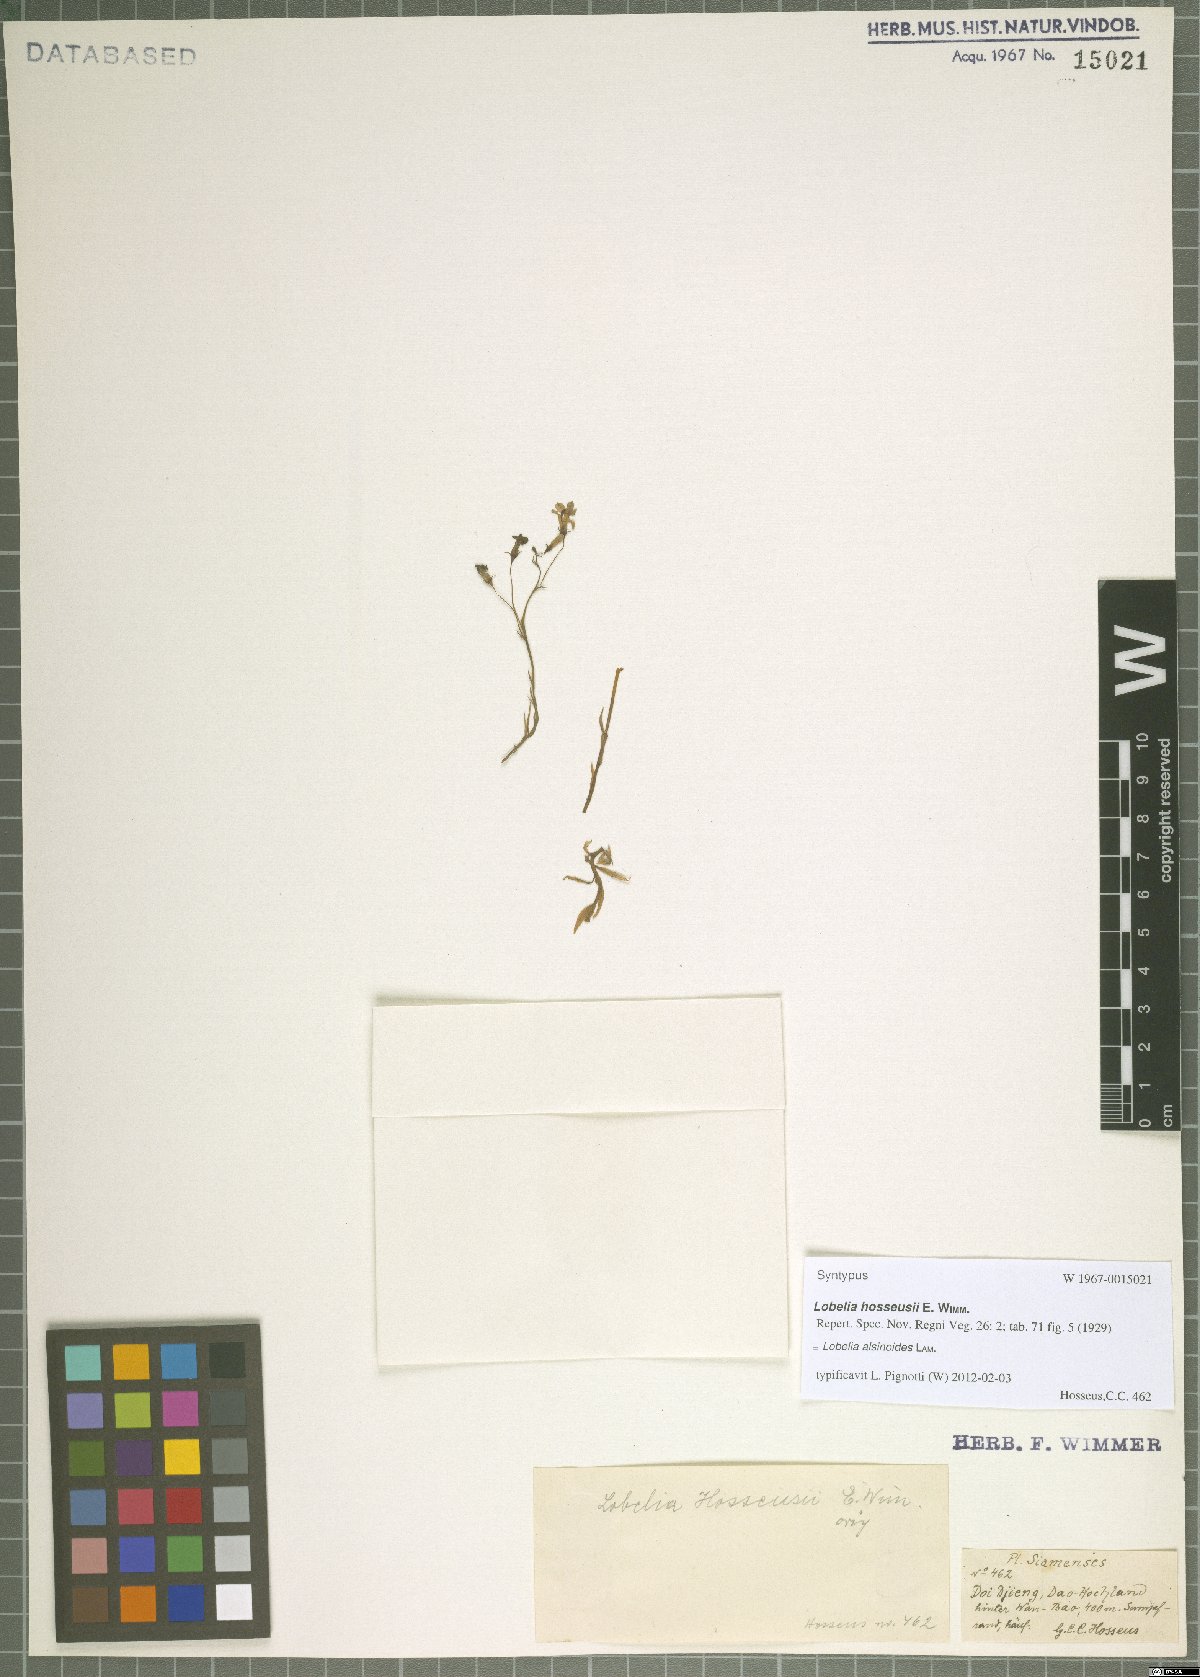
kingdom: Plantae
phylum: Tracheophyta
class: Magnoliopsida
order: Asterales
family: Campanulaceae
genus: Lobelia
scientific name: Lobelia alsinoides
